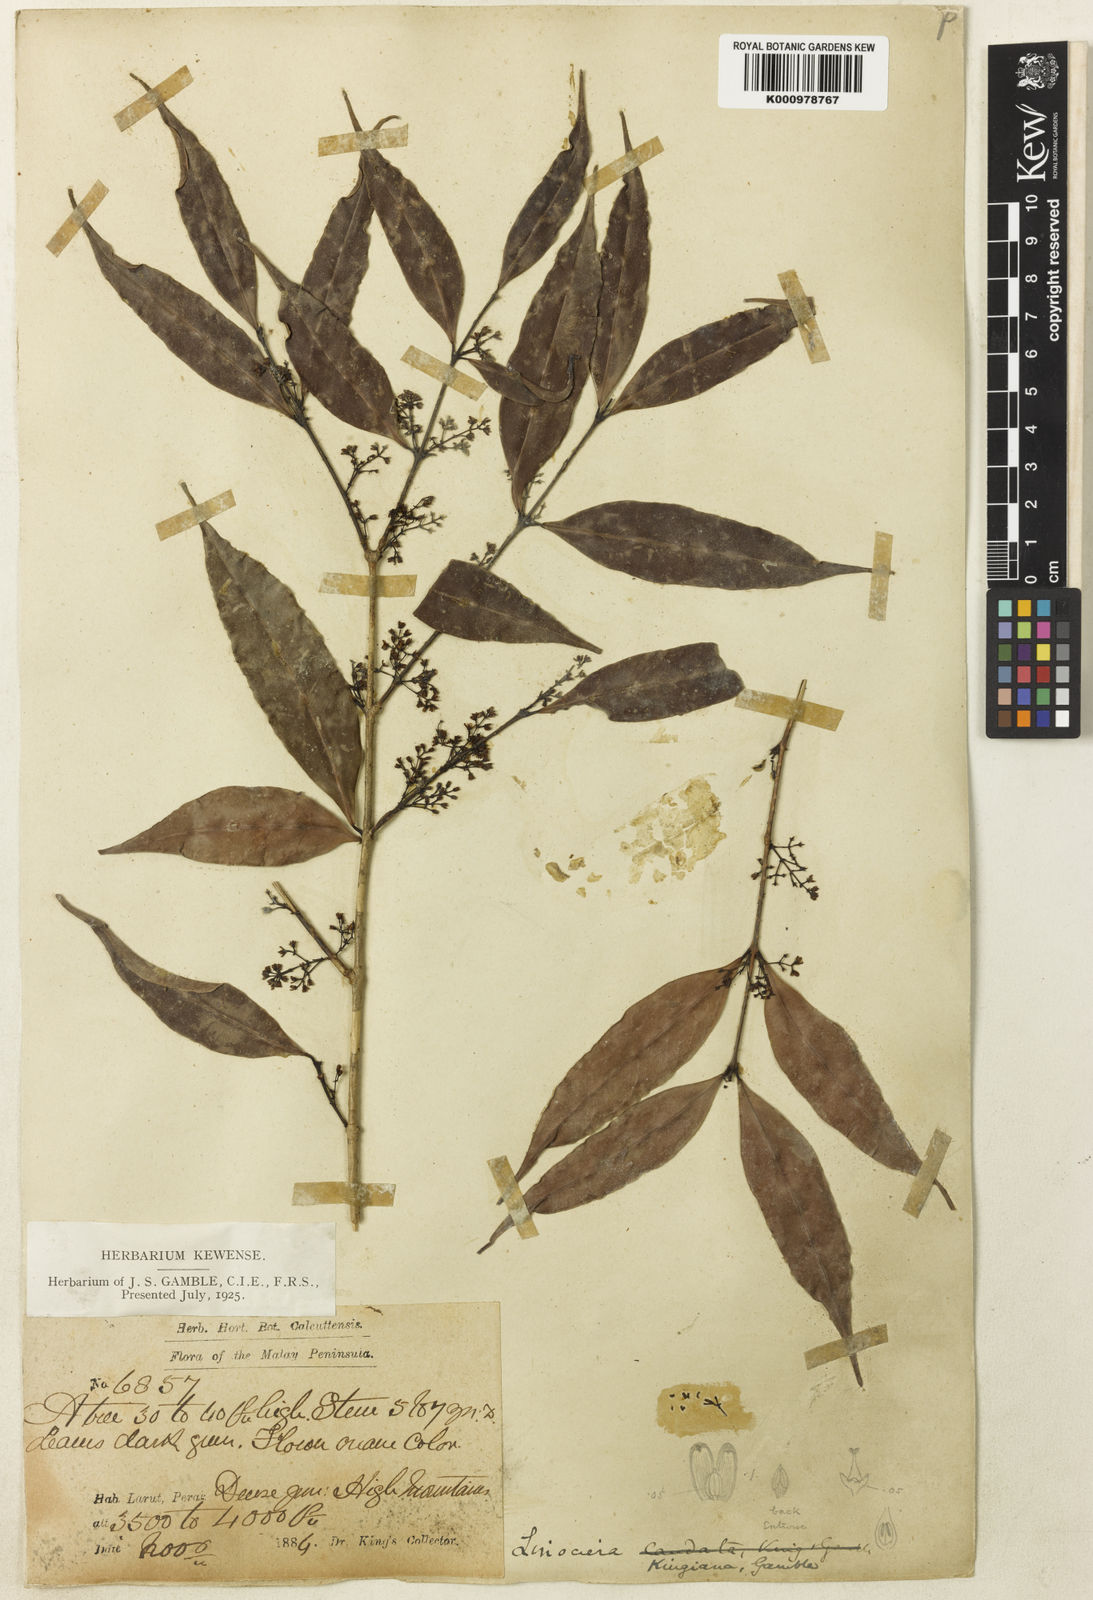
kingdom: Plantae
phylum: Tracheophyta
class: Magnoliopsida
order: Lamiales
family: Oleaceae
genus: Chionanthus
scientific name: Chionanthus caudifolius
